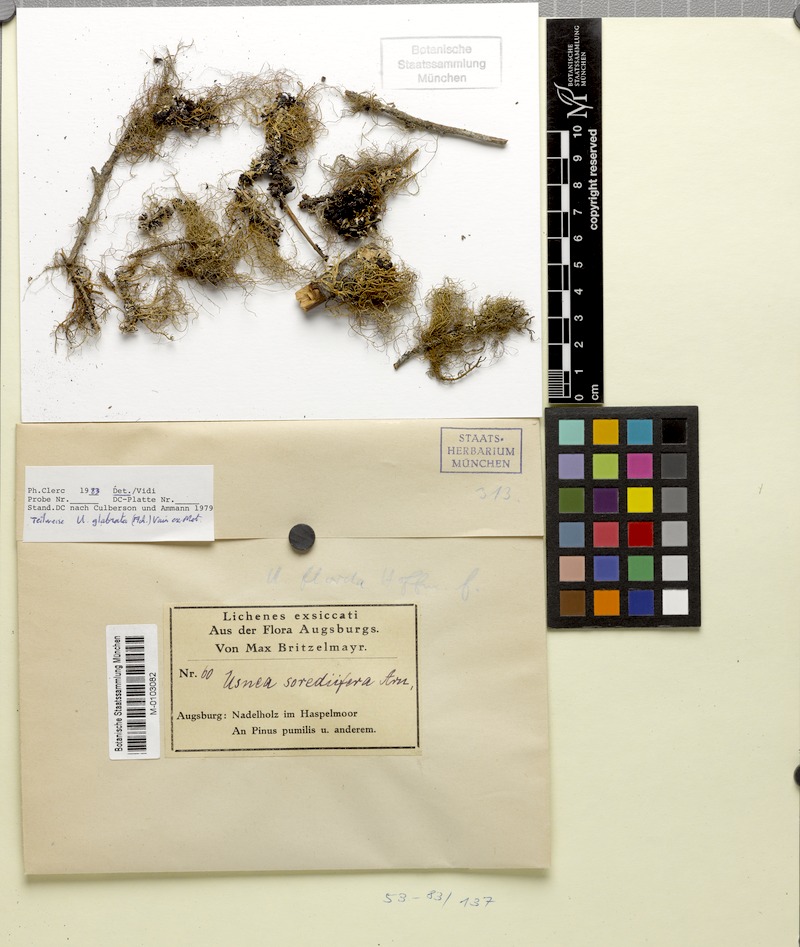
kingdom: Fungi
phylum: Ascomycota
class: Lecanoromycetes
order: Lecanorales
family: Parmeliaceae
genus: Usnea
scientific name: Usnea glabrata
